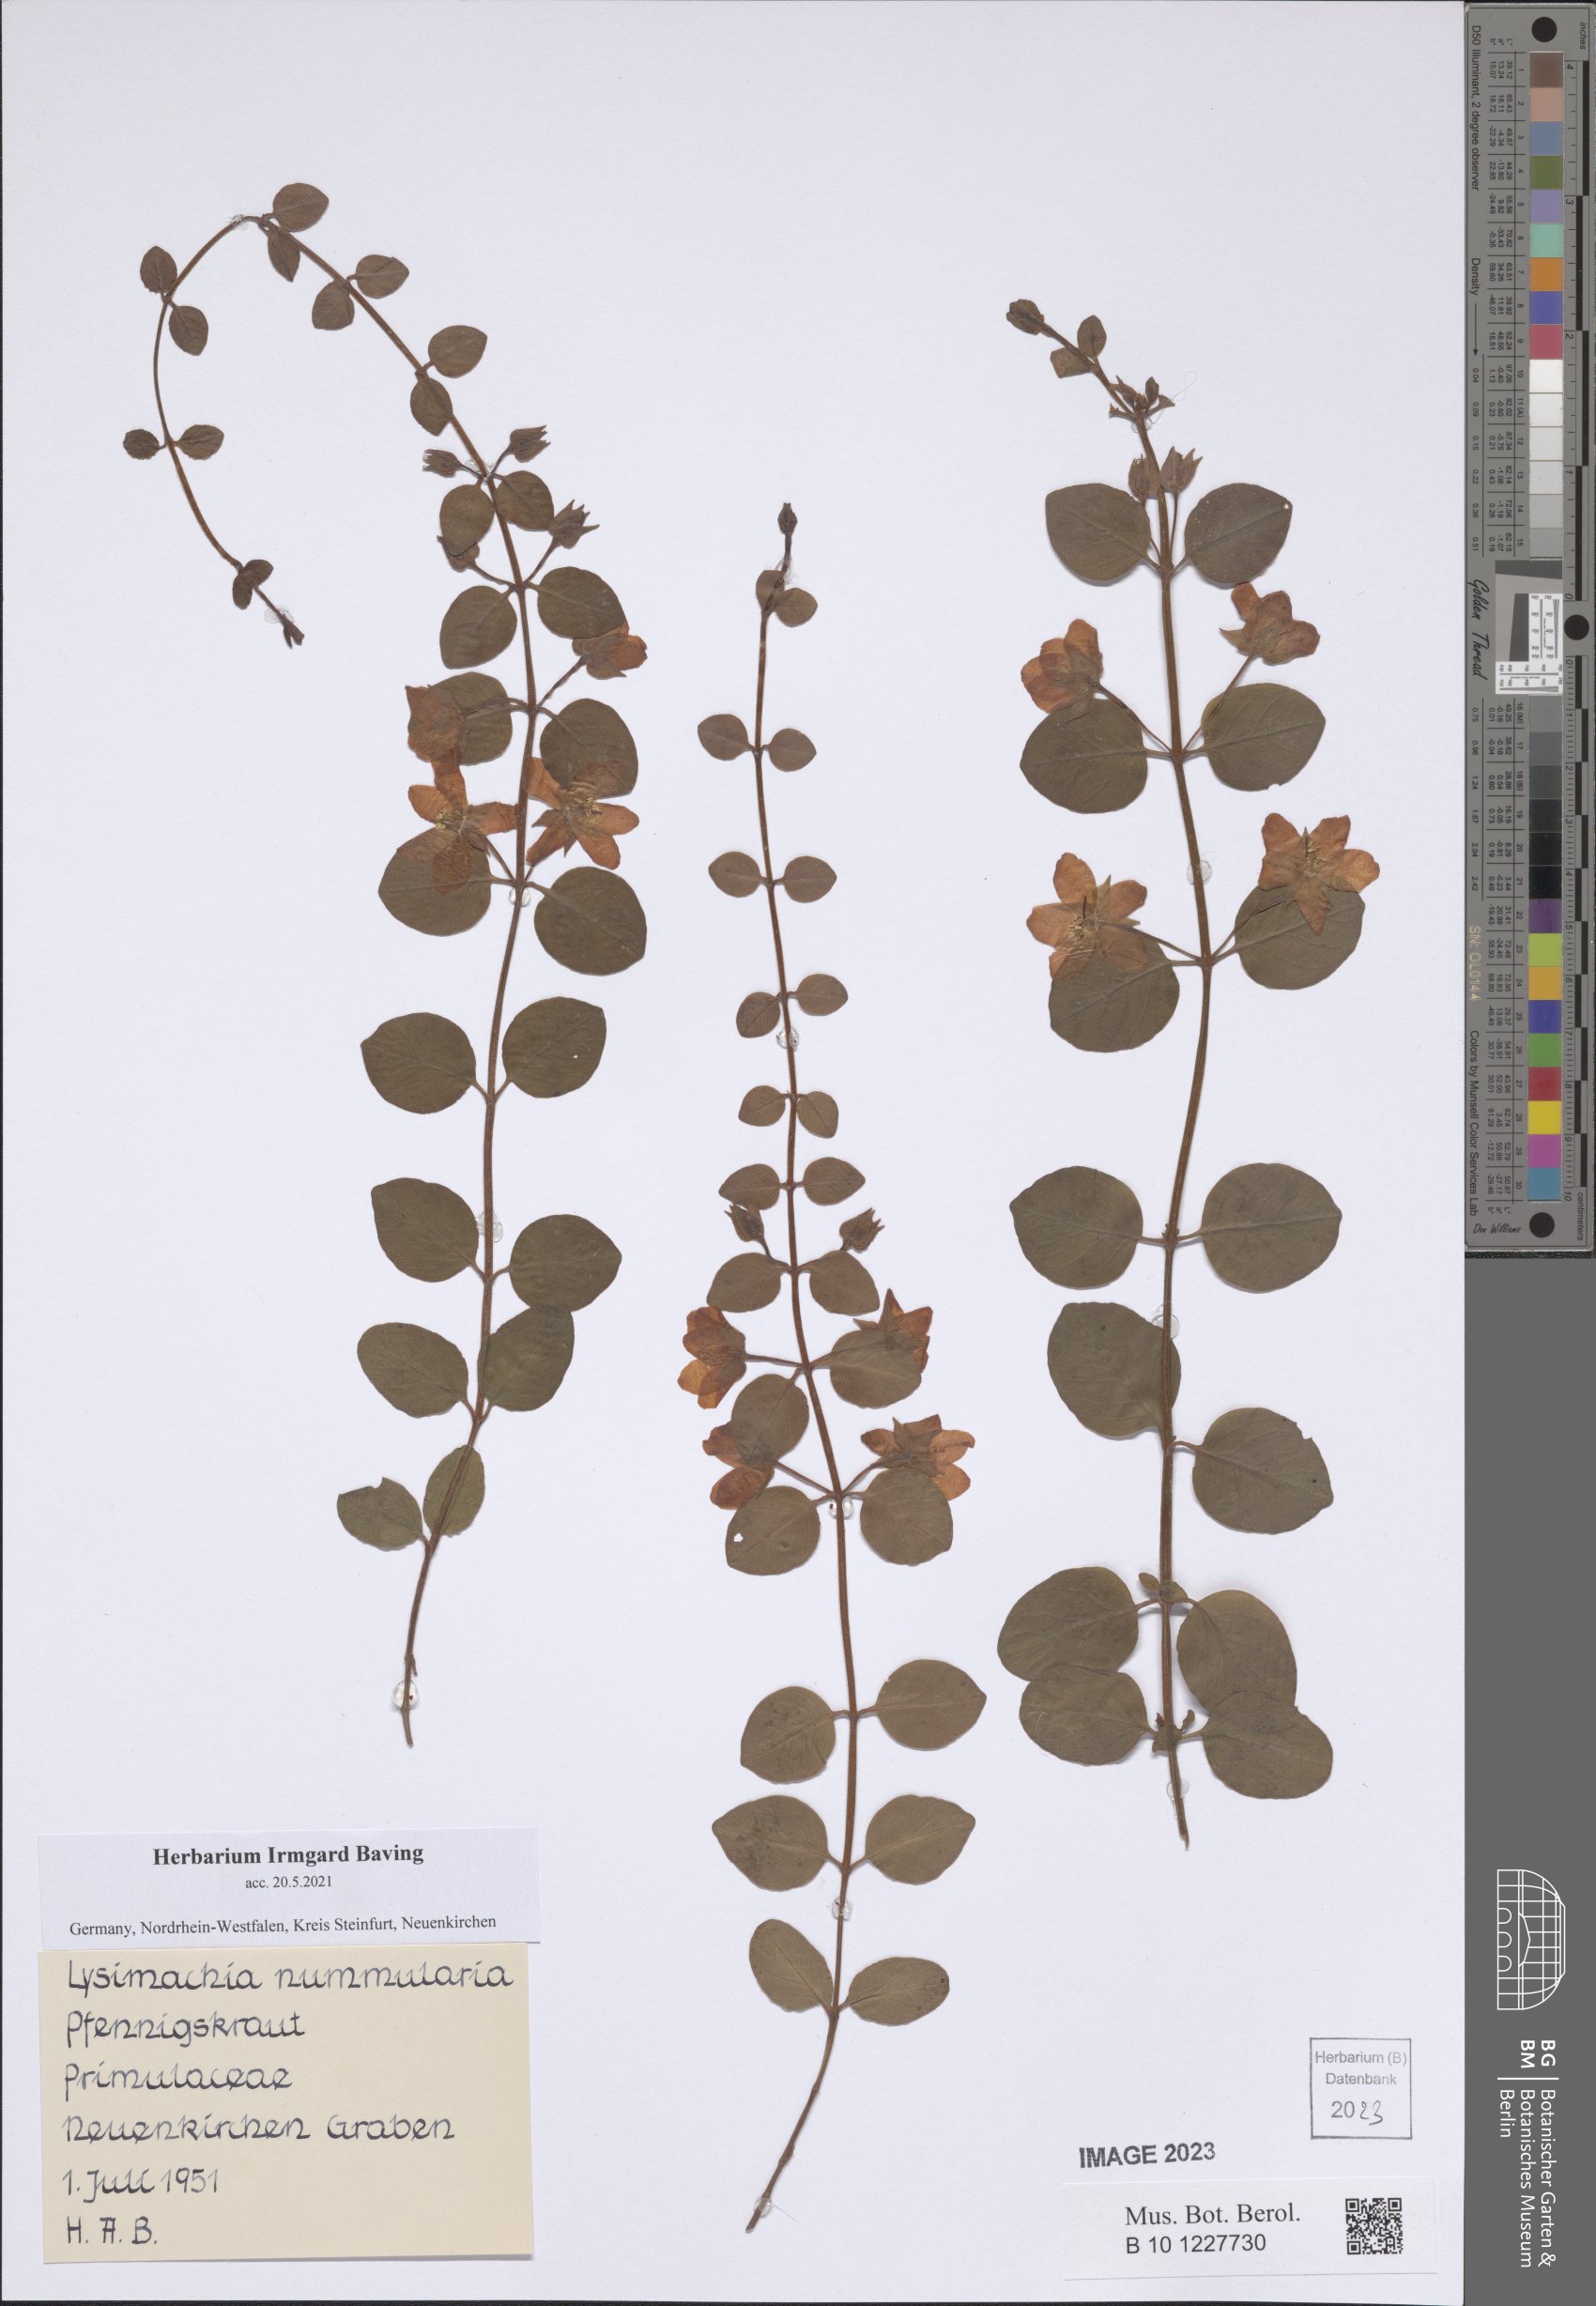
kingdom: Plantae
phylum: Tracheophyta
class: Magnoliopsida
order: Ericales
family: Primulaceae
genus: Lysimachia
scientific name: Lysimachia nummularia
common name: Moneywort
